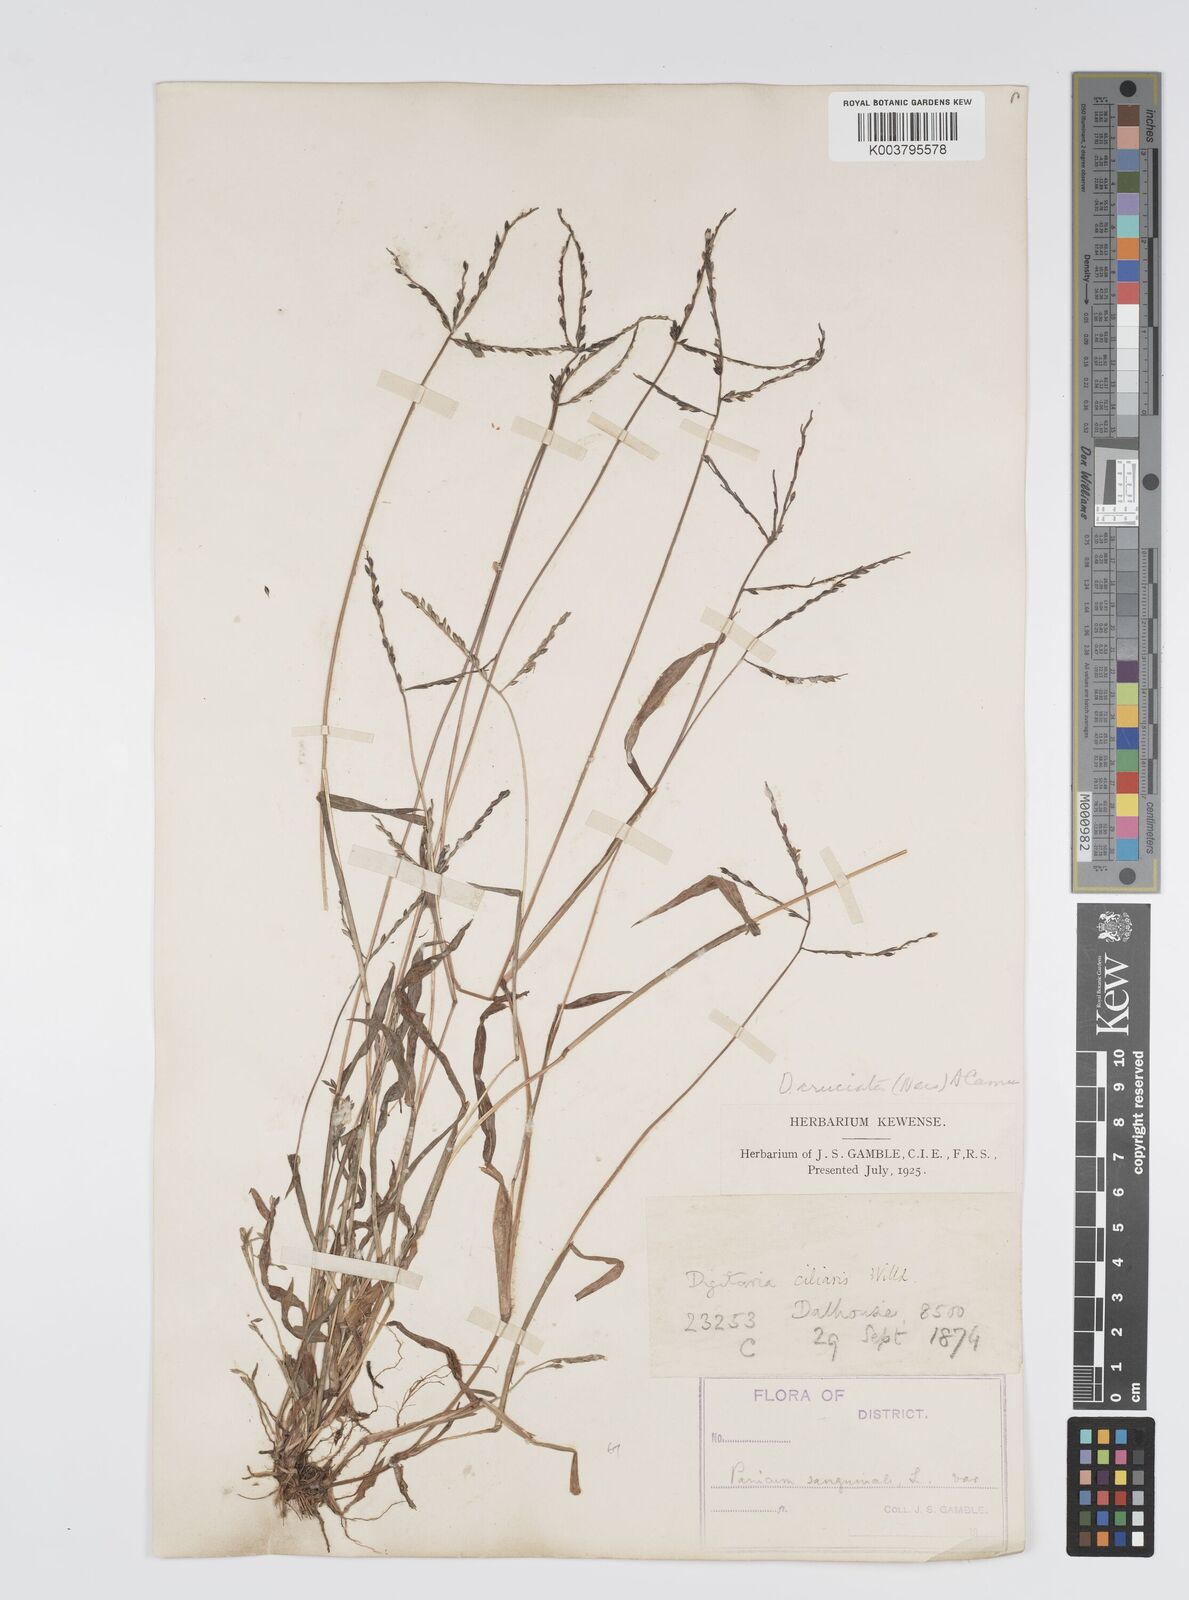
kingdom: Plantae
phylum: Tracheophyta
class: Liliopsida
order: Poales
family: Poaceae
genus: Digitaria
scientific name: Digitaria sanguinalis
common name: Hairy crabgrass
